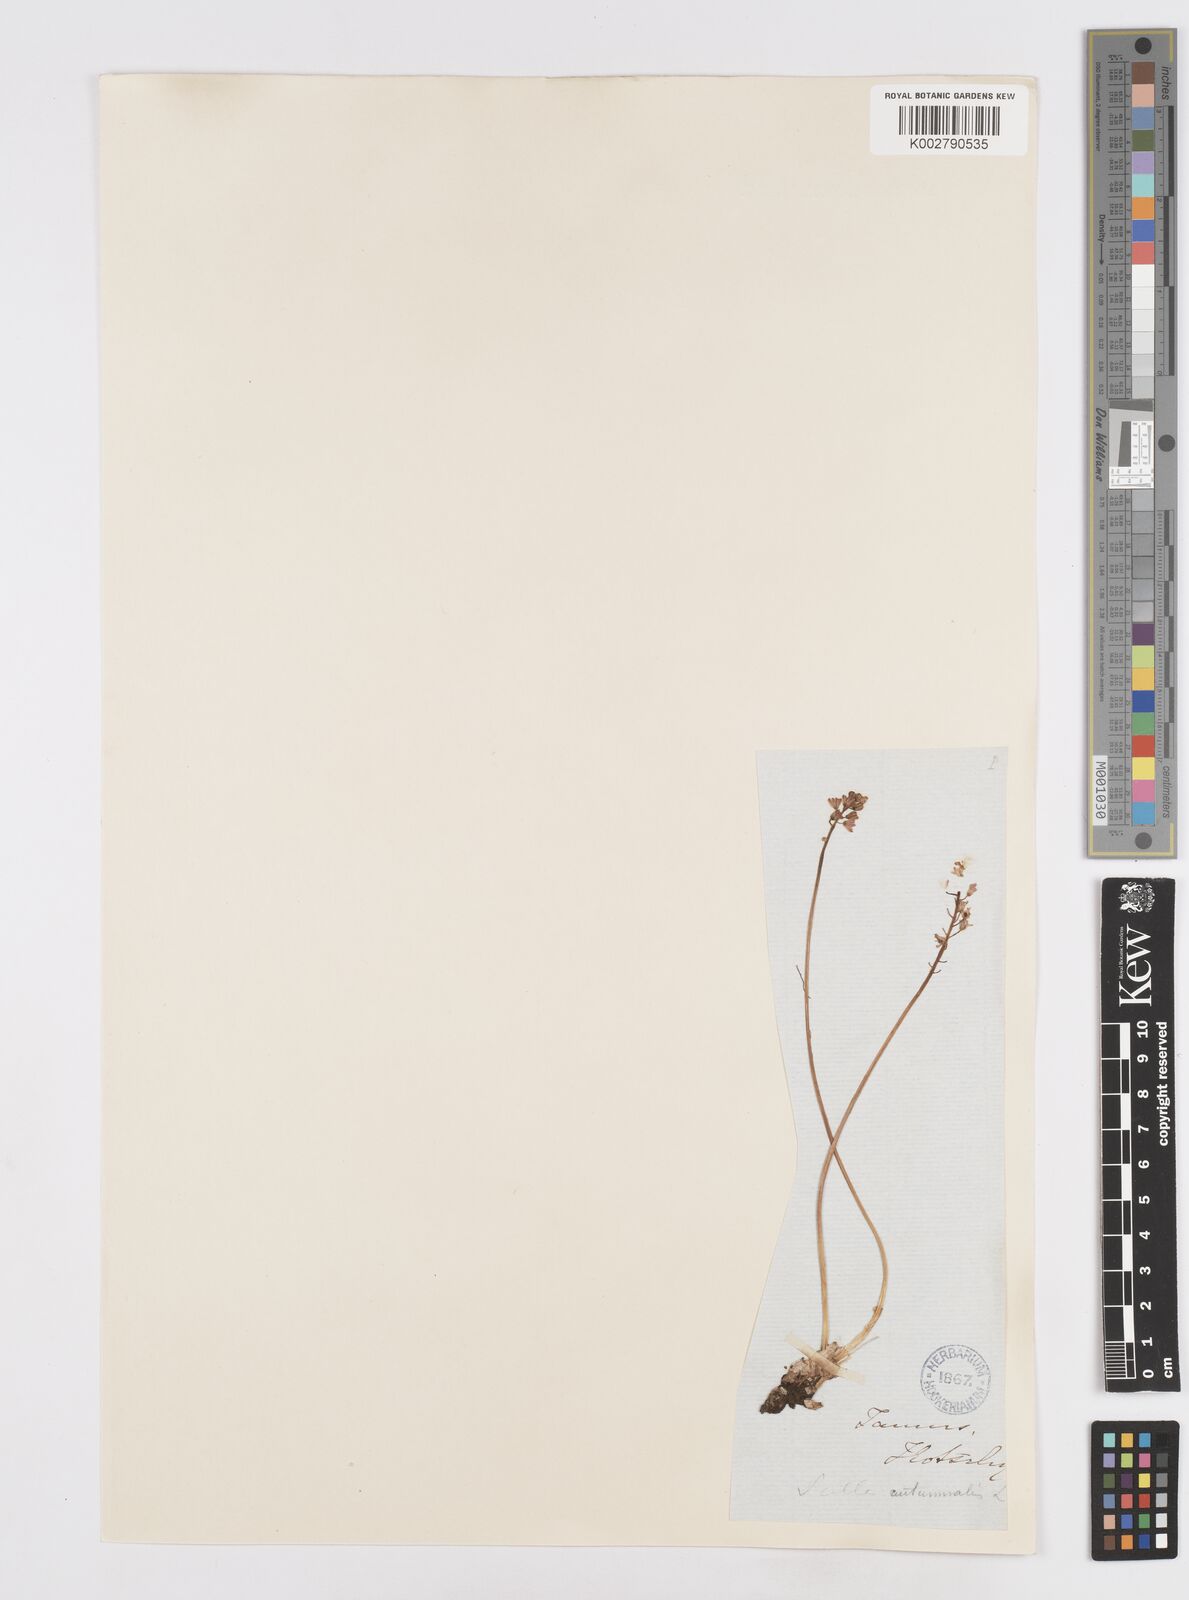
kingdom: Plantae
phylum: Tracheophyta
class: Liliopsida
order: Asparagales
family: Asparagaceae
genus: Prospero
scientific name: Prospero autumnale
